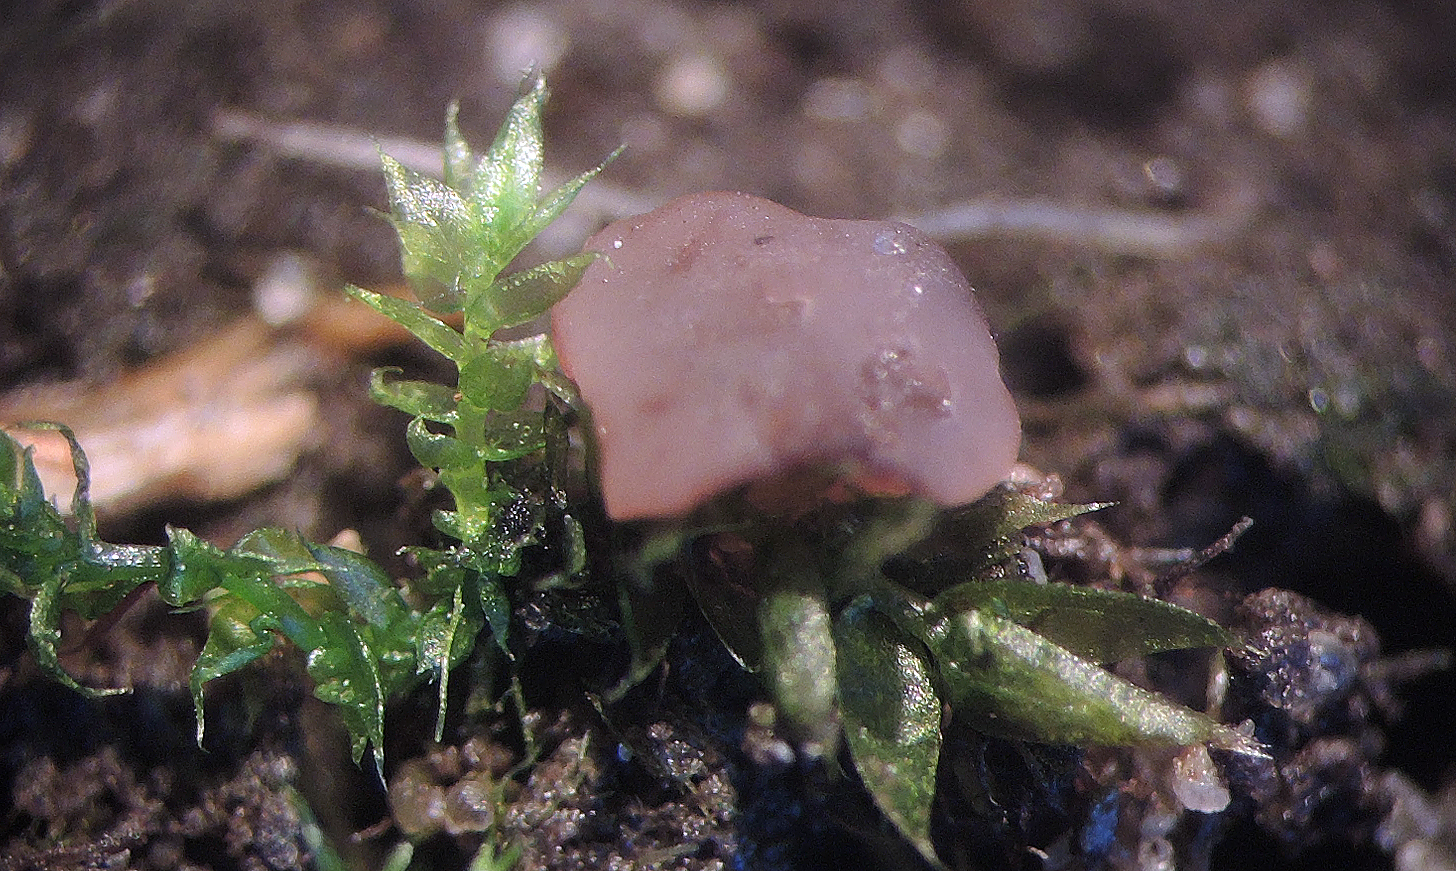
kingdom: Fungi
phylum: Ascomycota
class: Leotiomycetes
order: Helotiales
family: Gelatinodiscaceae
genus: Ombrophila
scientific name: Ombrophila janthina
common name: viol-bævreskive
